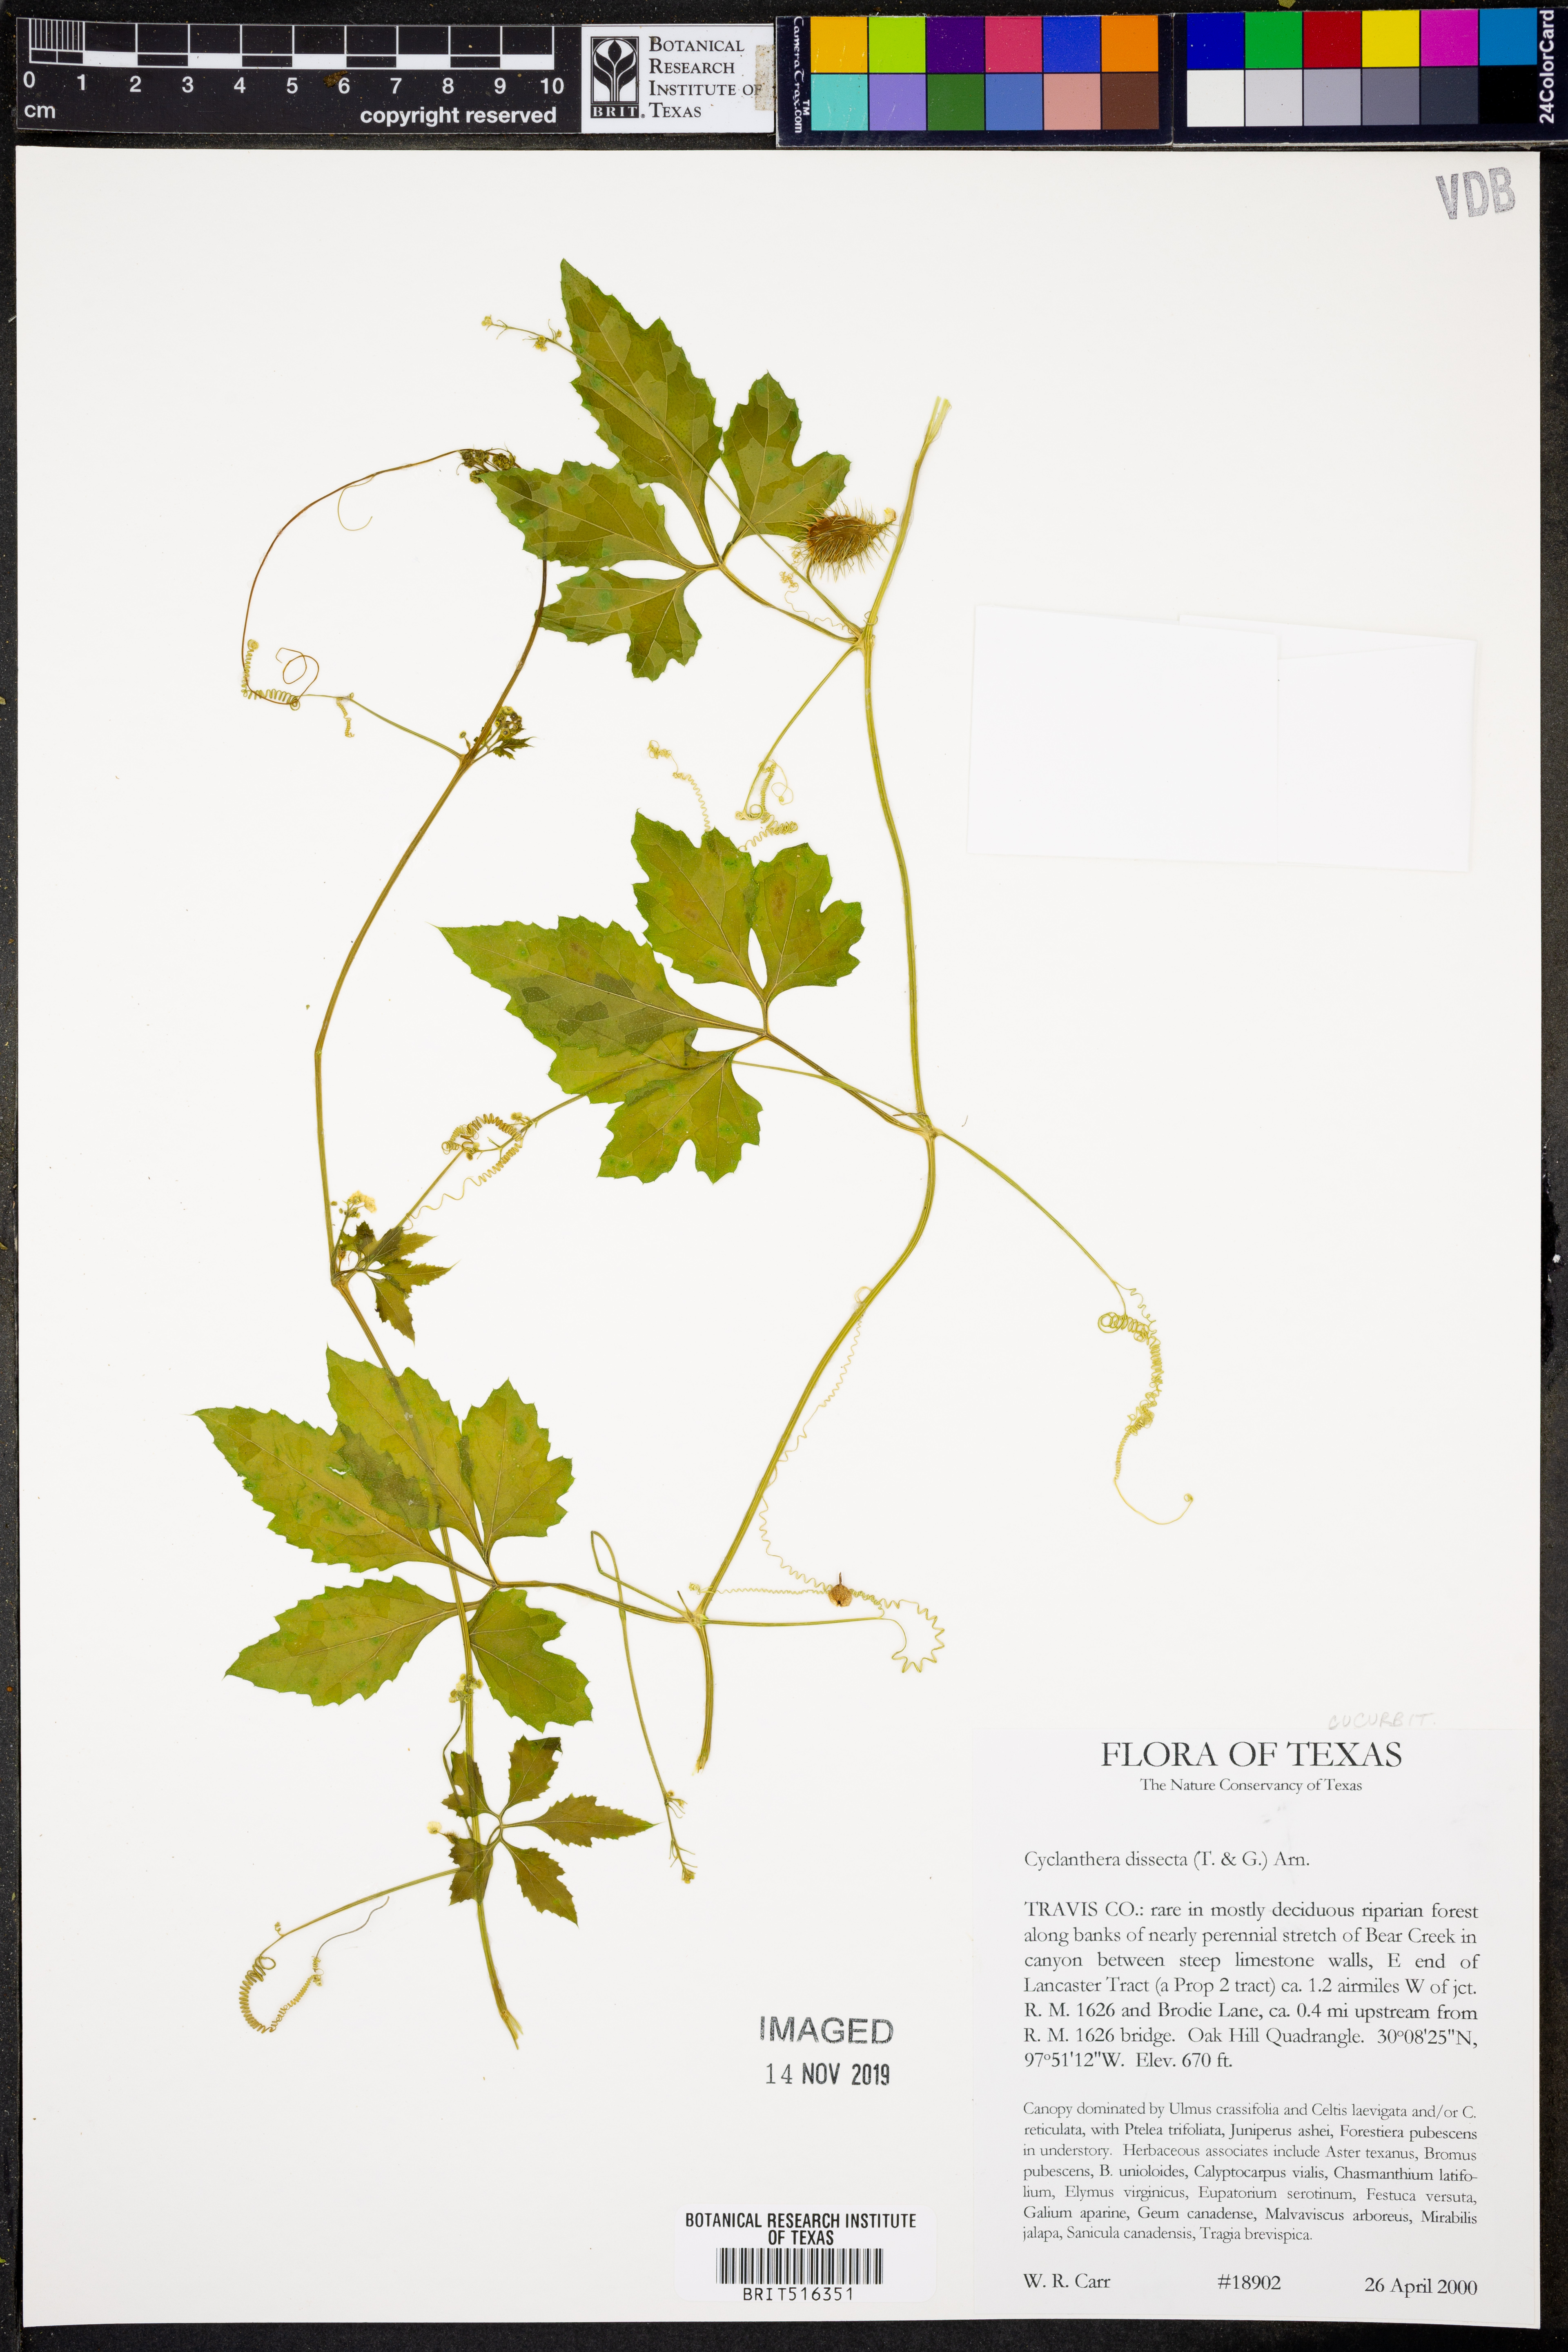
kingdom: Plantae
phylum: Tracheophyta
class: Magnoliopsida
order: Cucurbitales
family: Cucurbitaceae
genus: Cyclanthera
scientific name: Cyclanthera dissecta
